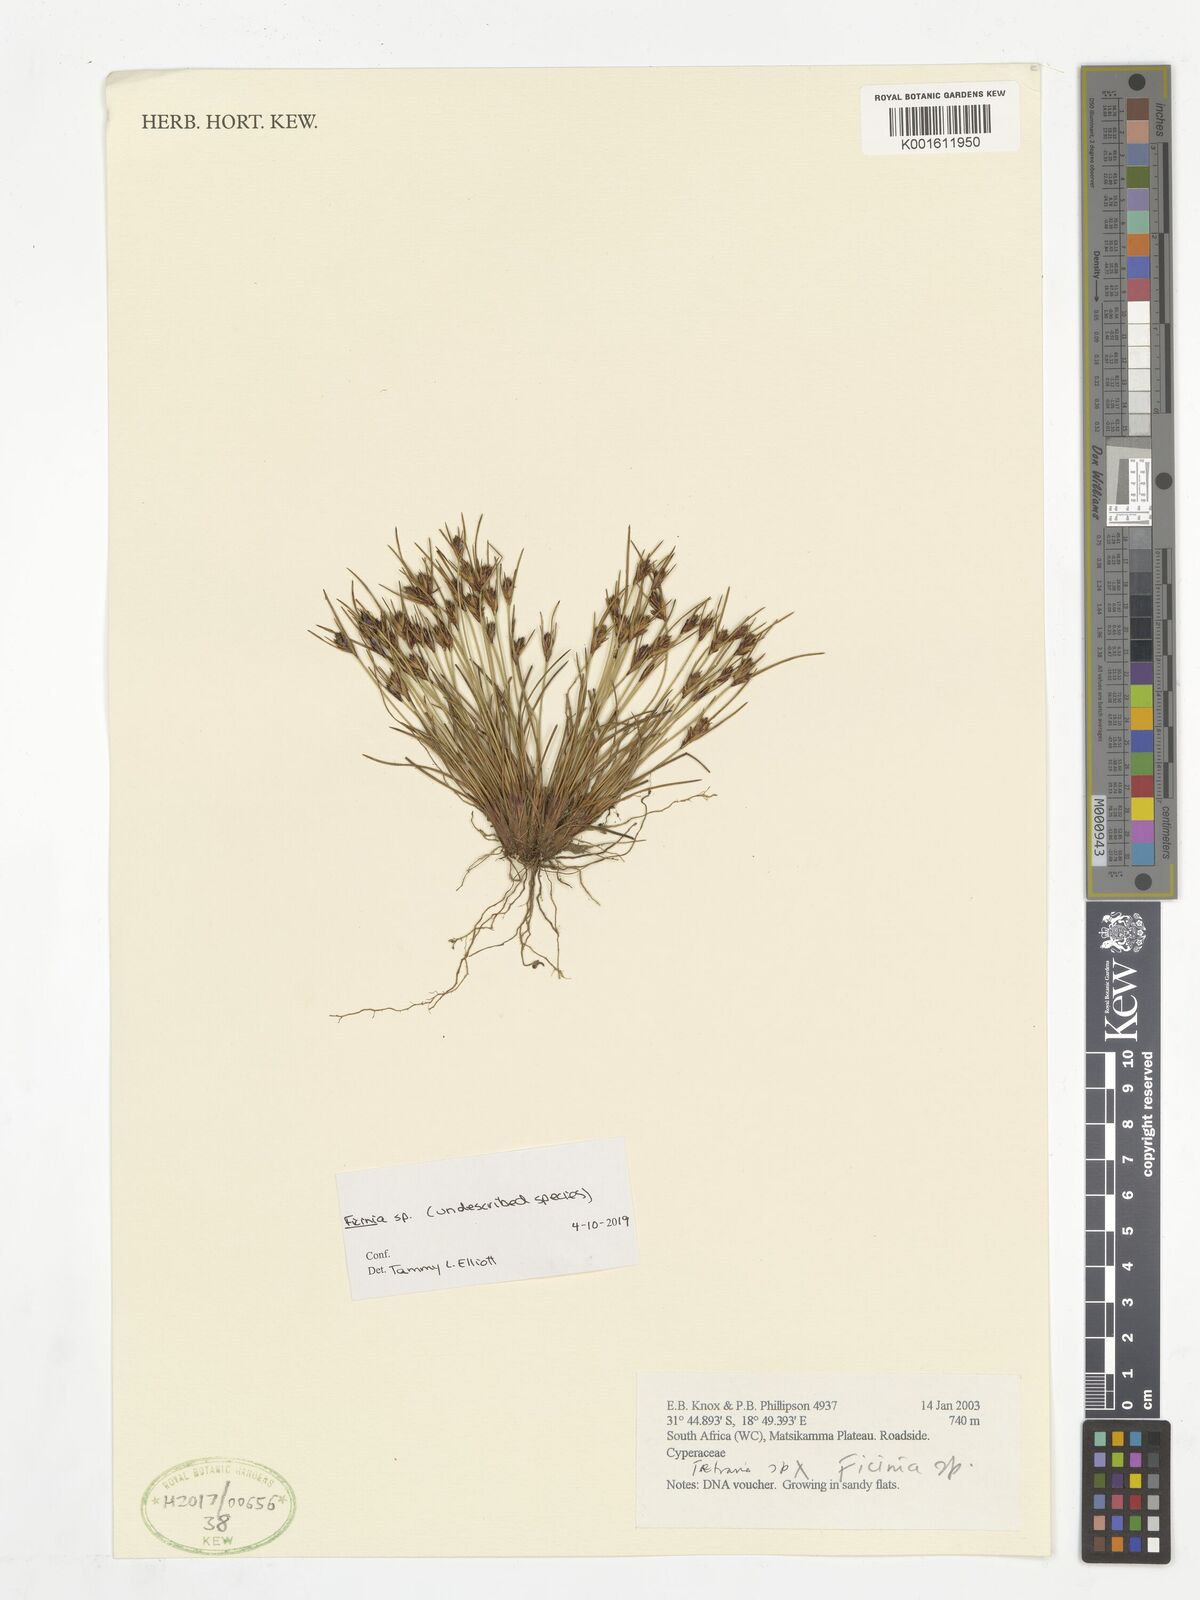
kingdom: Plantae
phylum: Tracheophyta
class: Liliopsida
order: Poales
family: Cyperaceae
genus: Ficinia
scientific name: Ficinia
